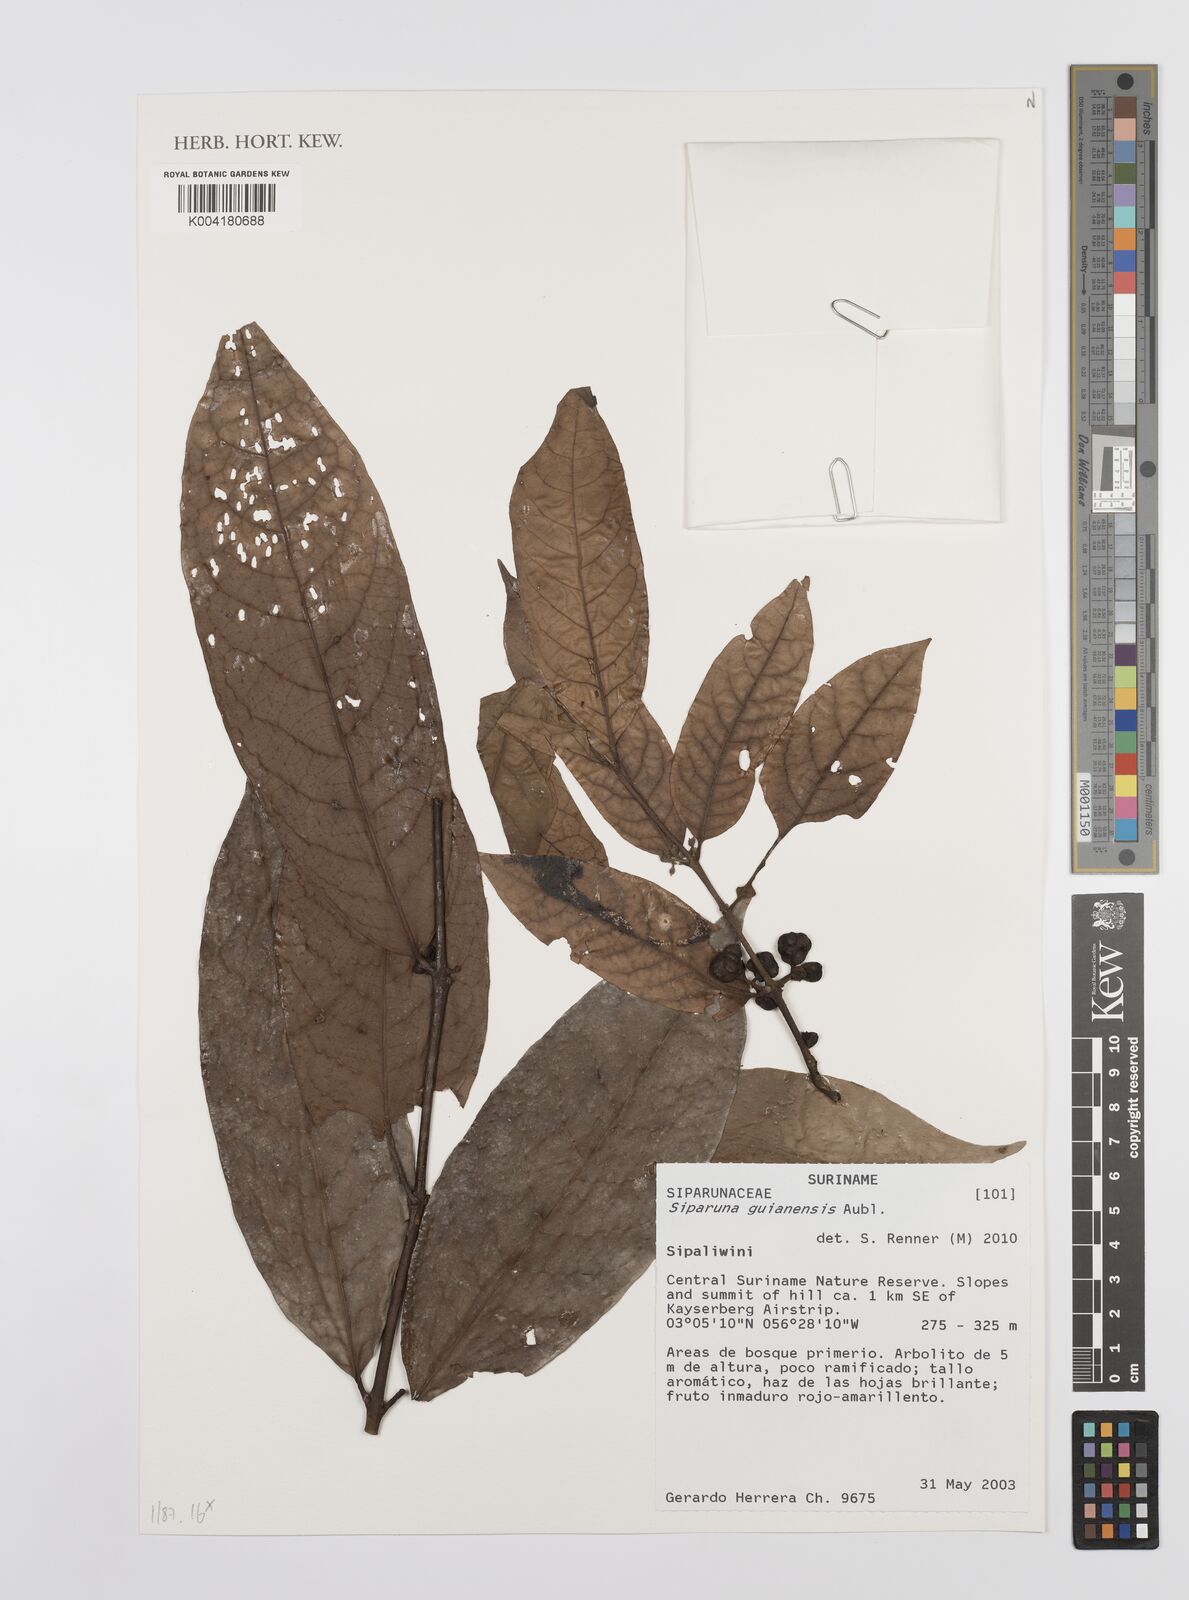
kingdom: Plantae
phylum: Tracheophyta
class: Magnoliopsida
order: Laurales
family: Siparunaceae
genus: Siparuna
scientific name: Siparuna guianensis
